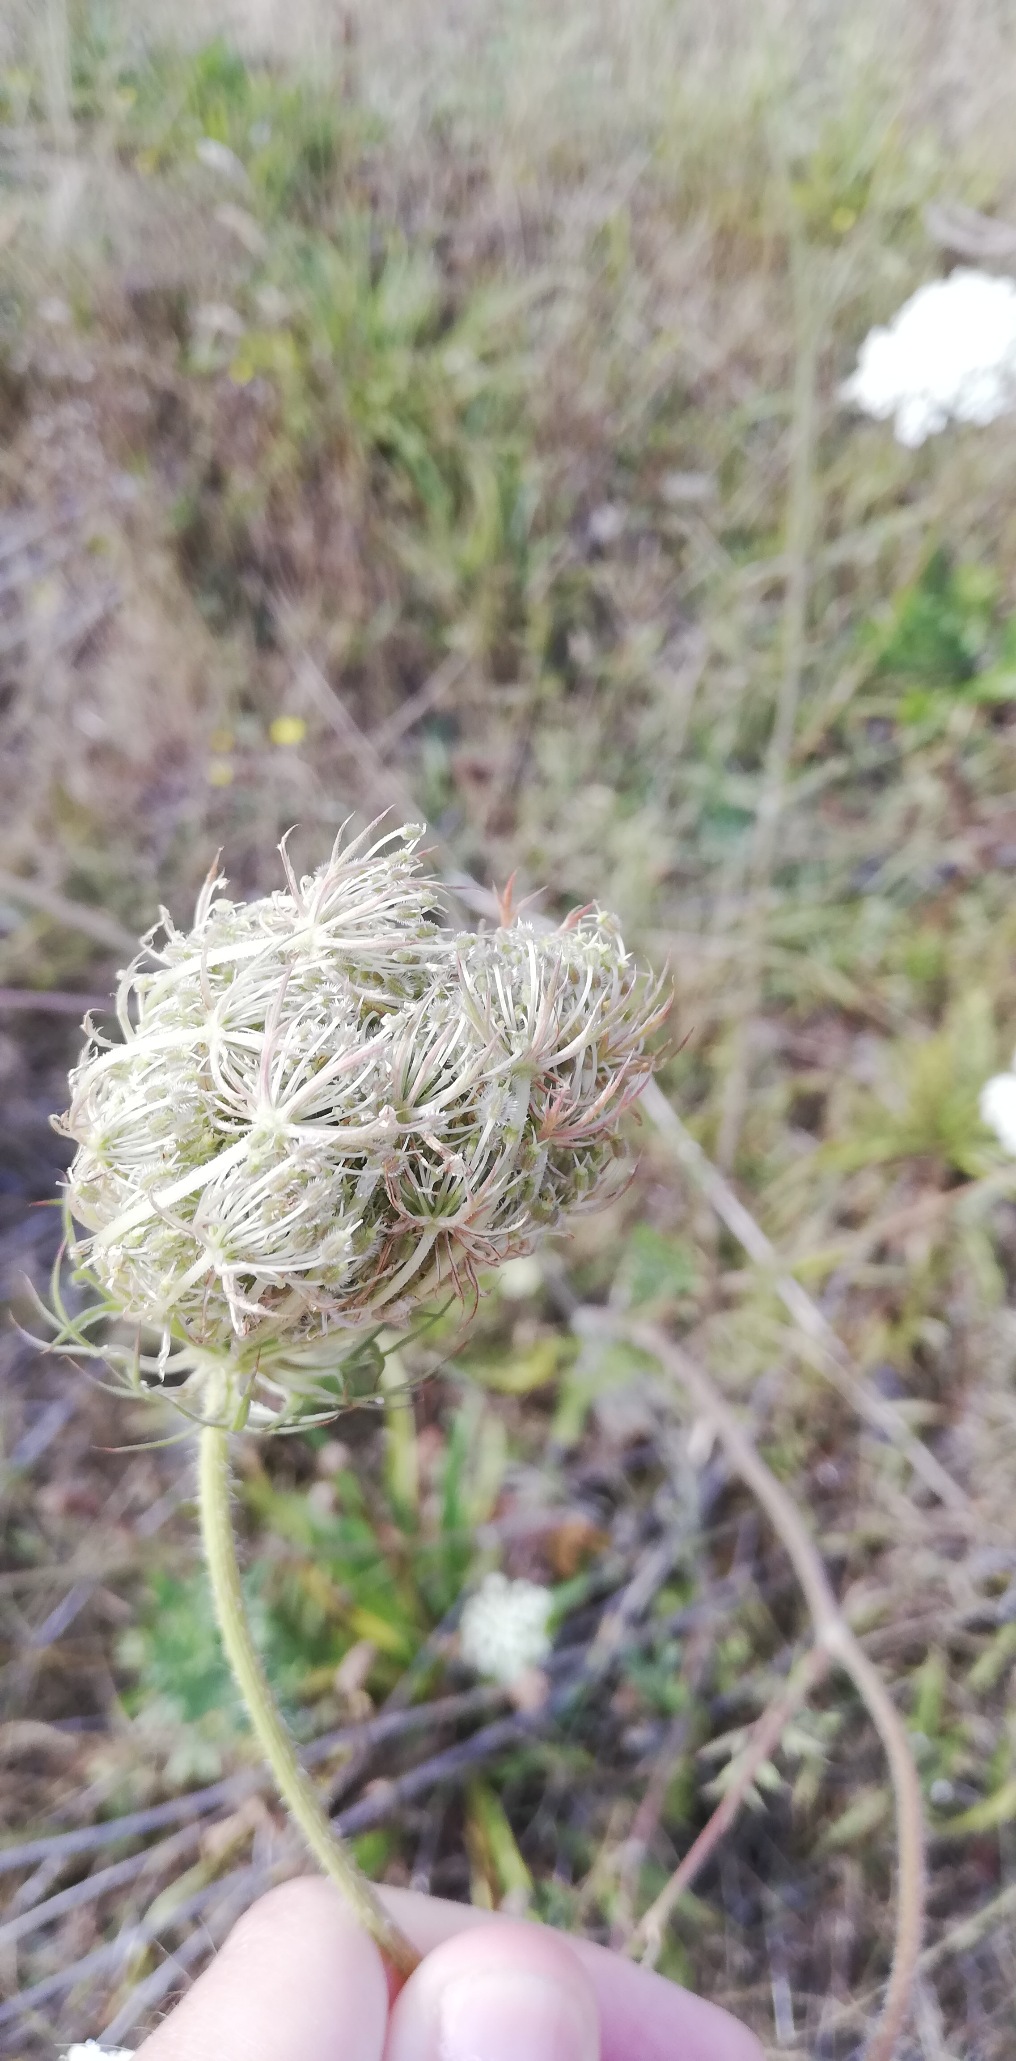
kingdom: Plantae
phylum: Tracheophyta
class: Magnoliopsida
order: Apiales
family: Apiaceae
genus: Daucus
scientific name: Daucus carota
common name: Vild gulerod
